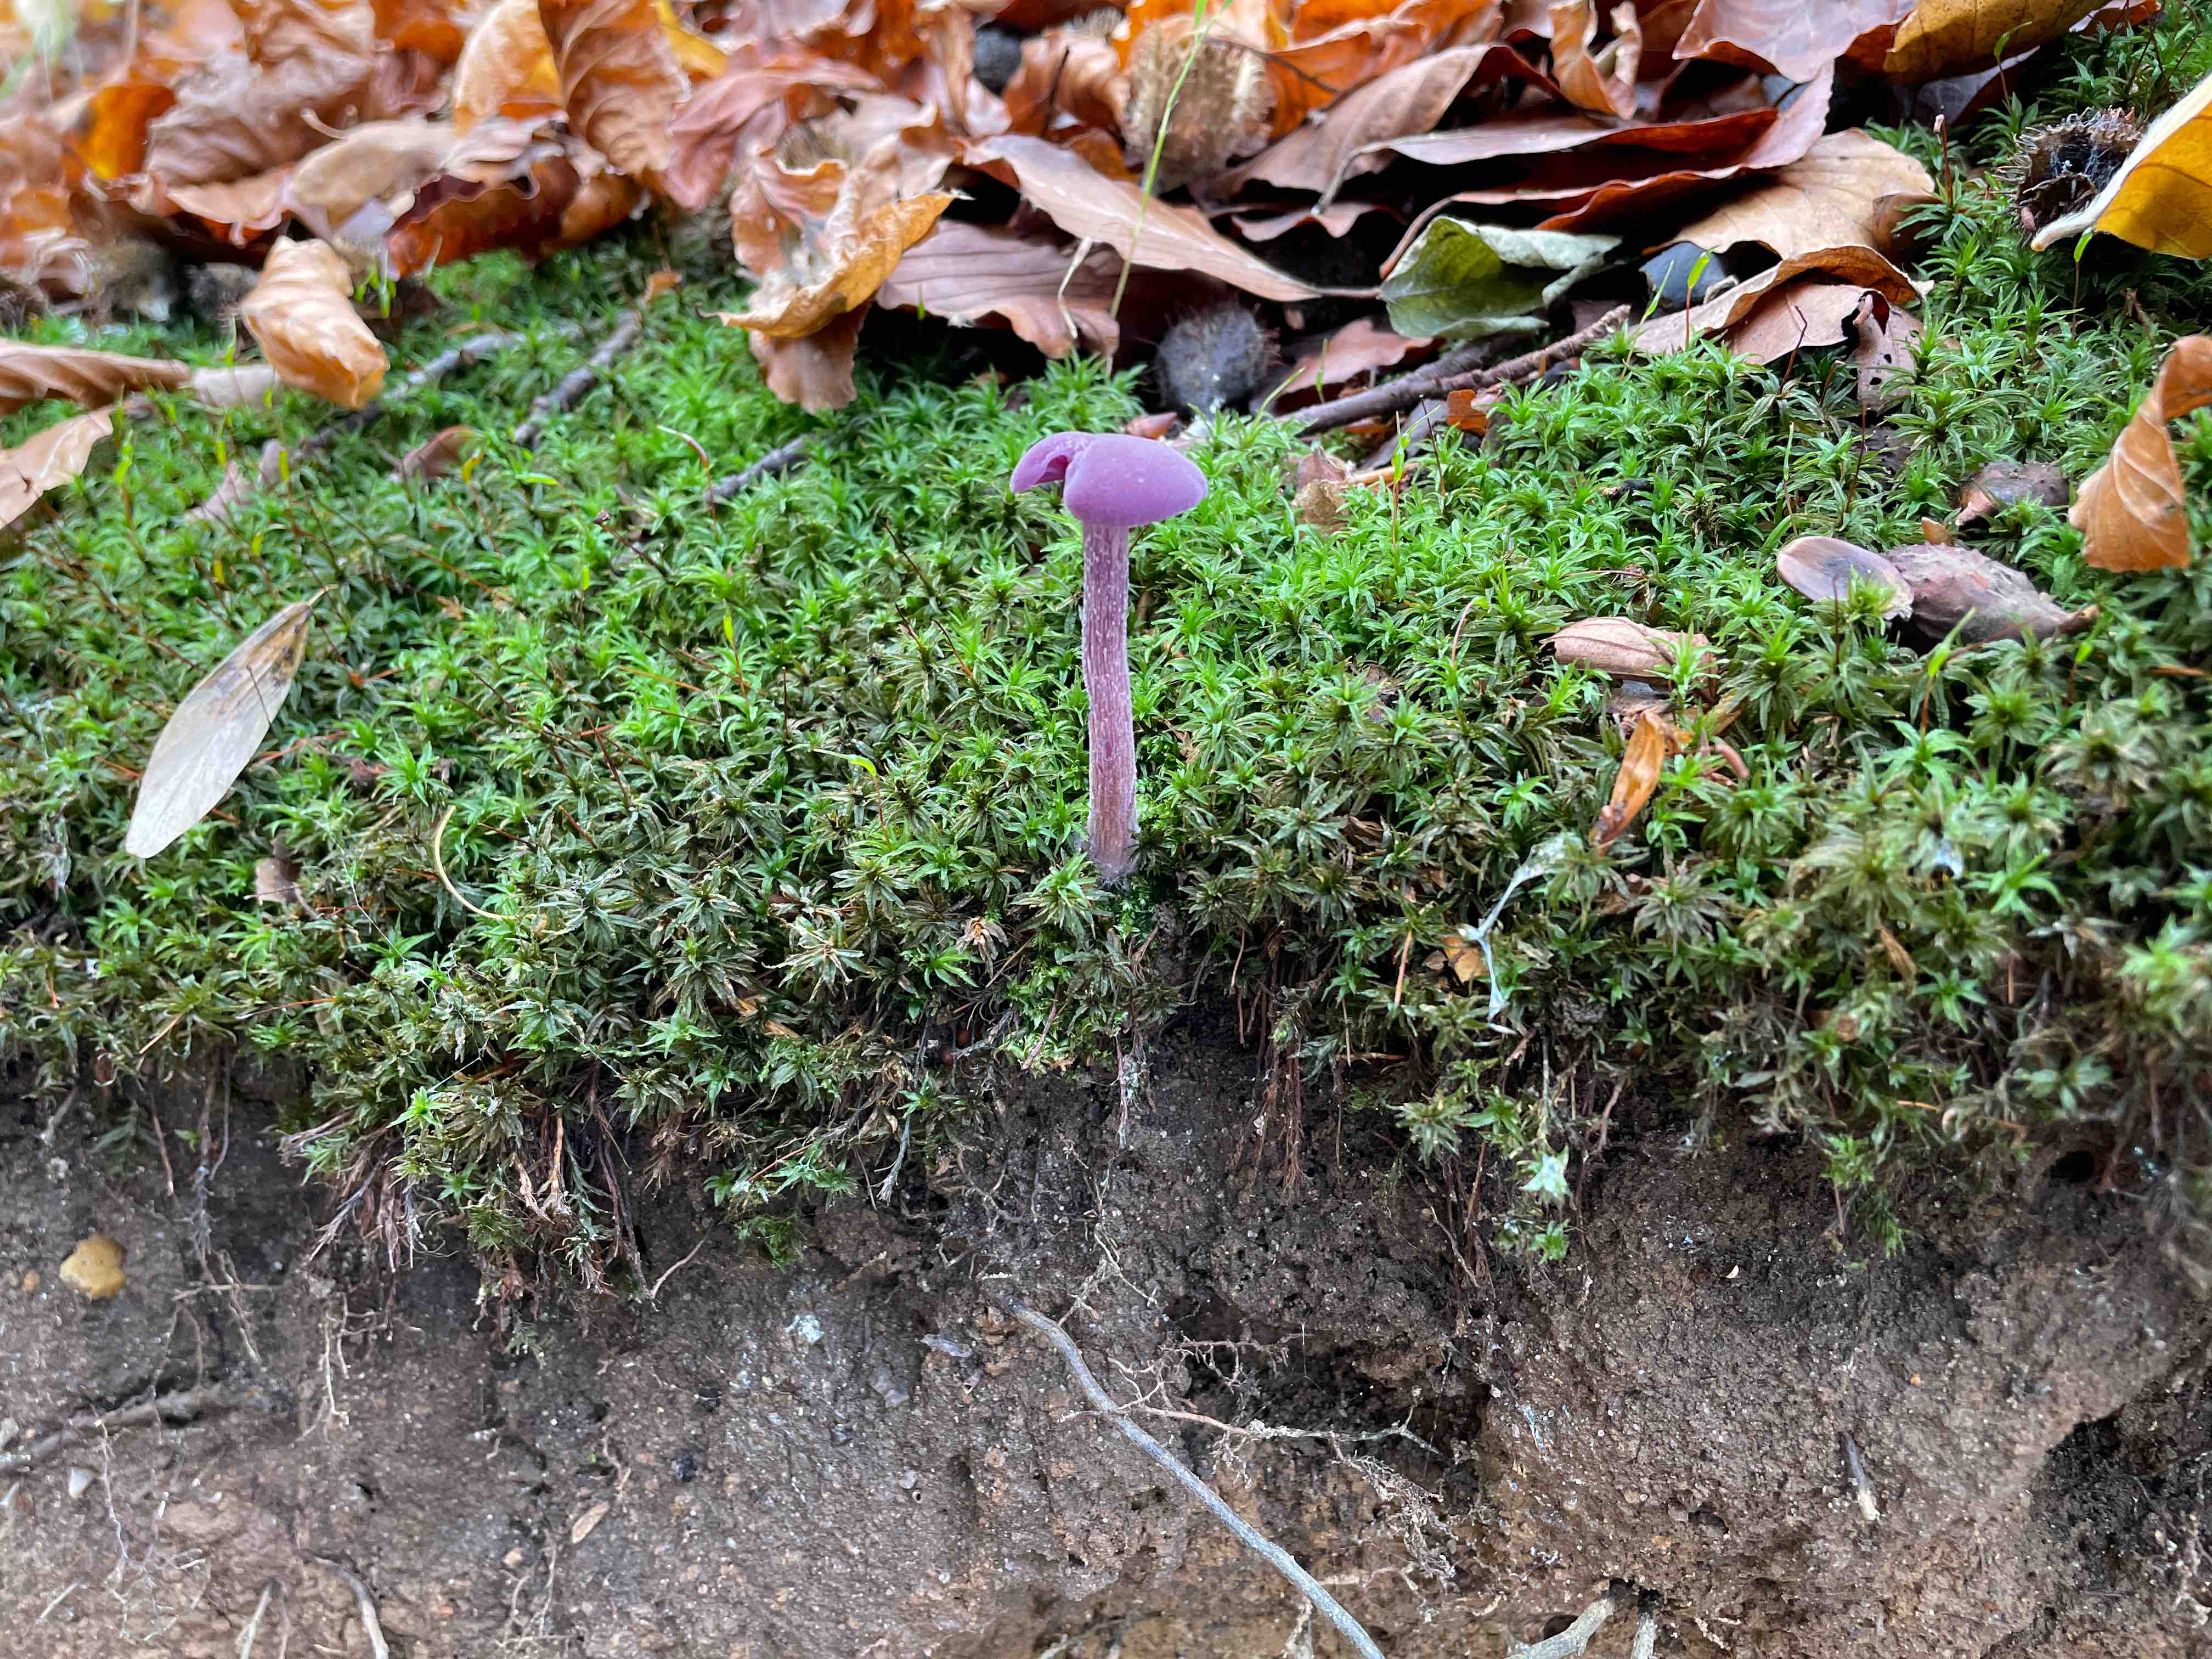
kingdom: Fungi
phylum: Basidiomycota
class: Agaricomycetes
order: Agaricales
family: Hydnangiaceae
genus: Laccaria
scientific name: Laccaria amethystina
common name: violet ametysthat
